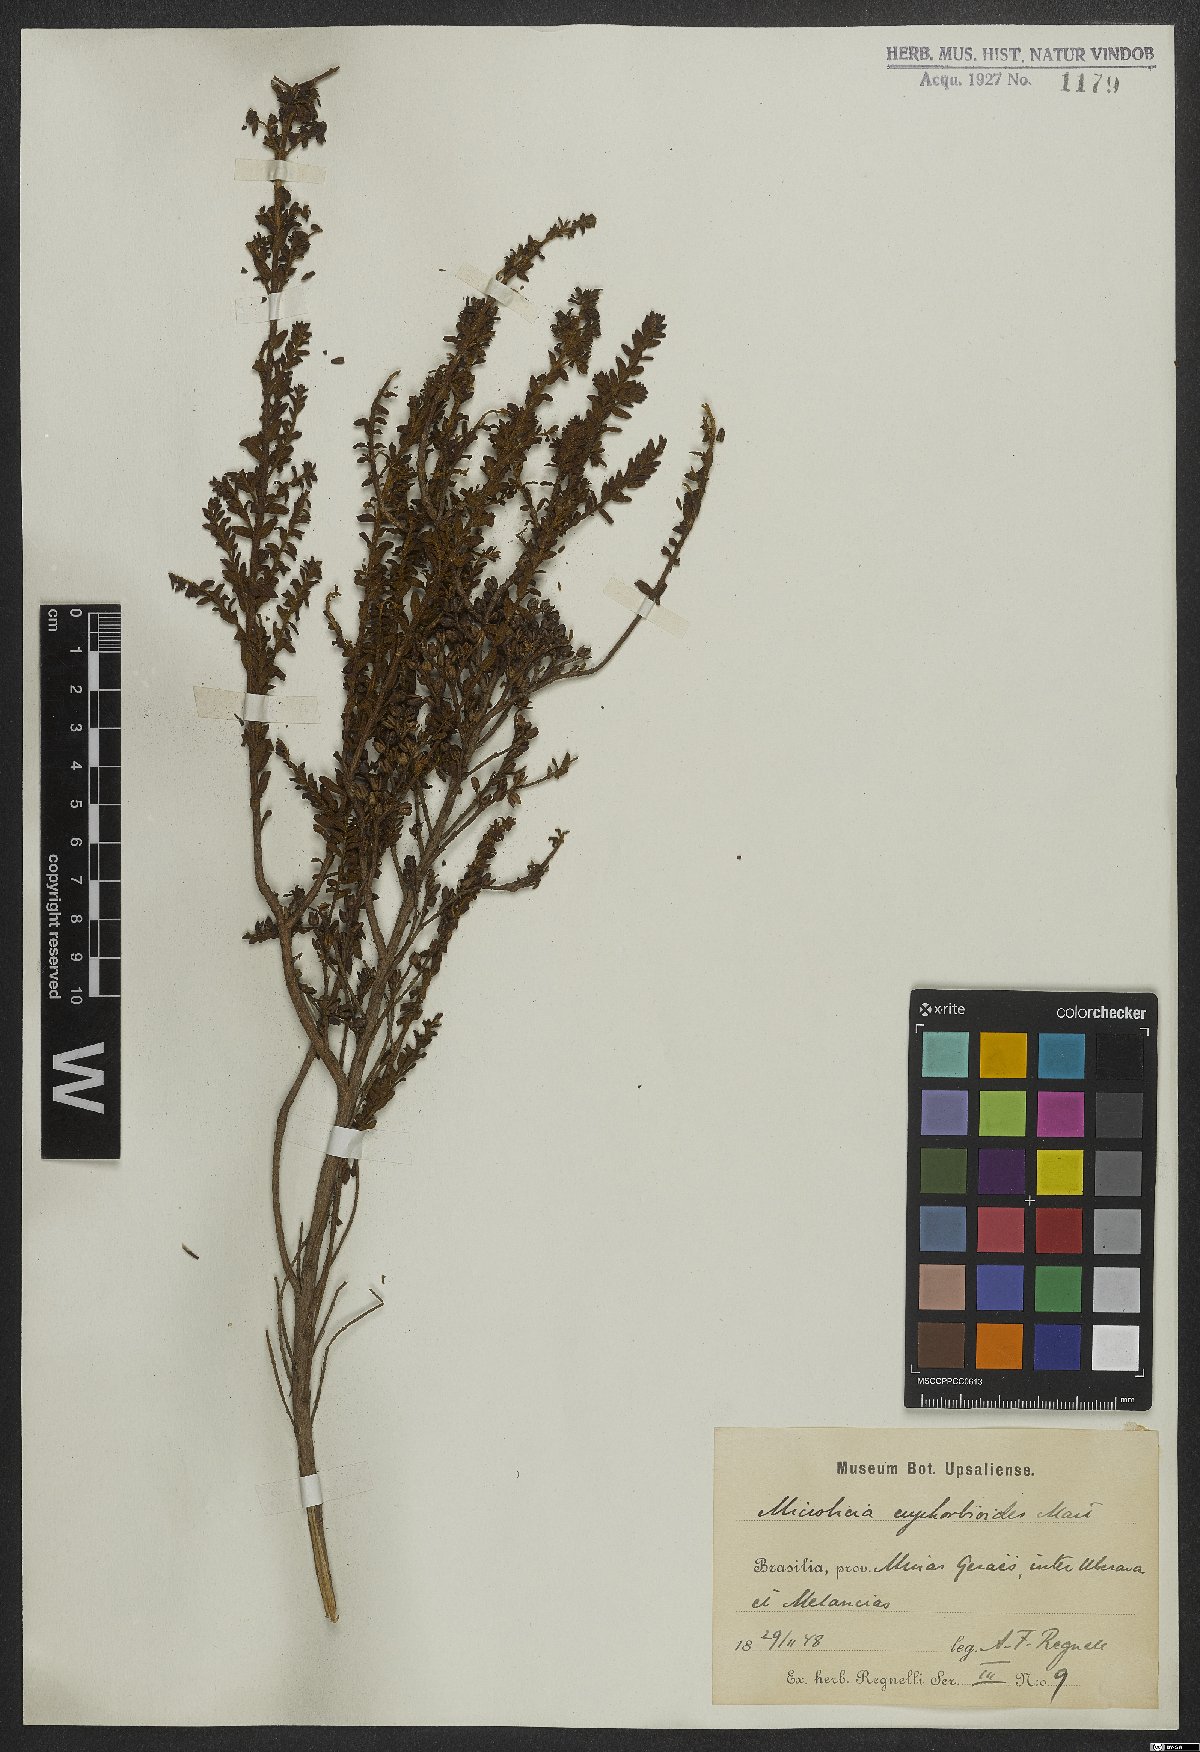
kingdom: Plantae
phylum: Tracheophyta
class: Magnoliopsida
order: Myrtales
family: Melastomataceae
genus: Microlicia
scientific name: Microlicia euphorbioides
